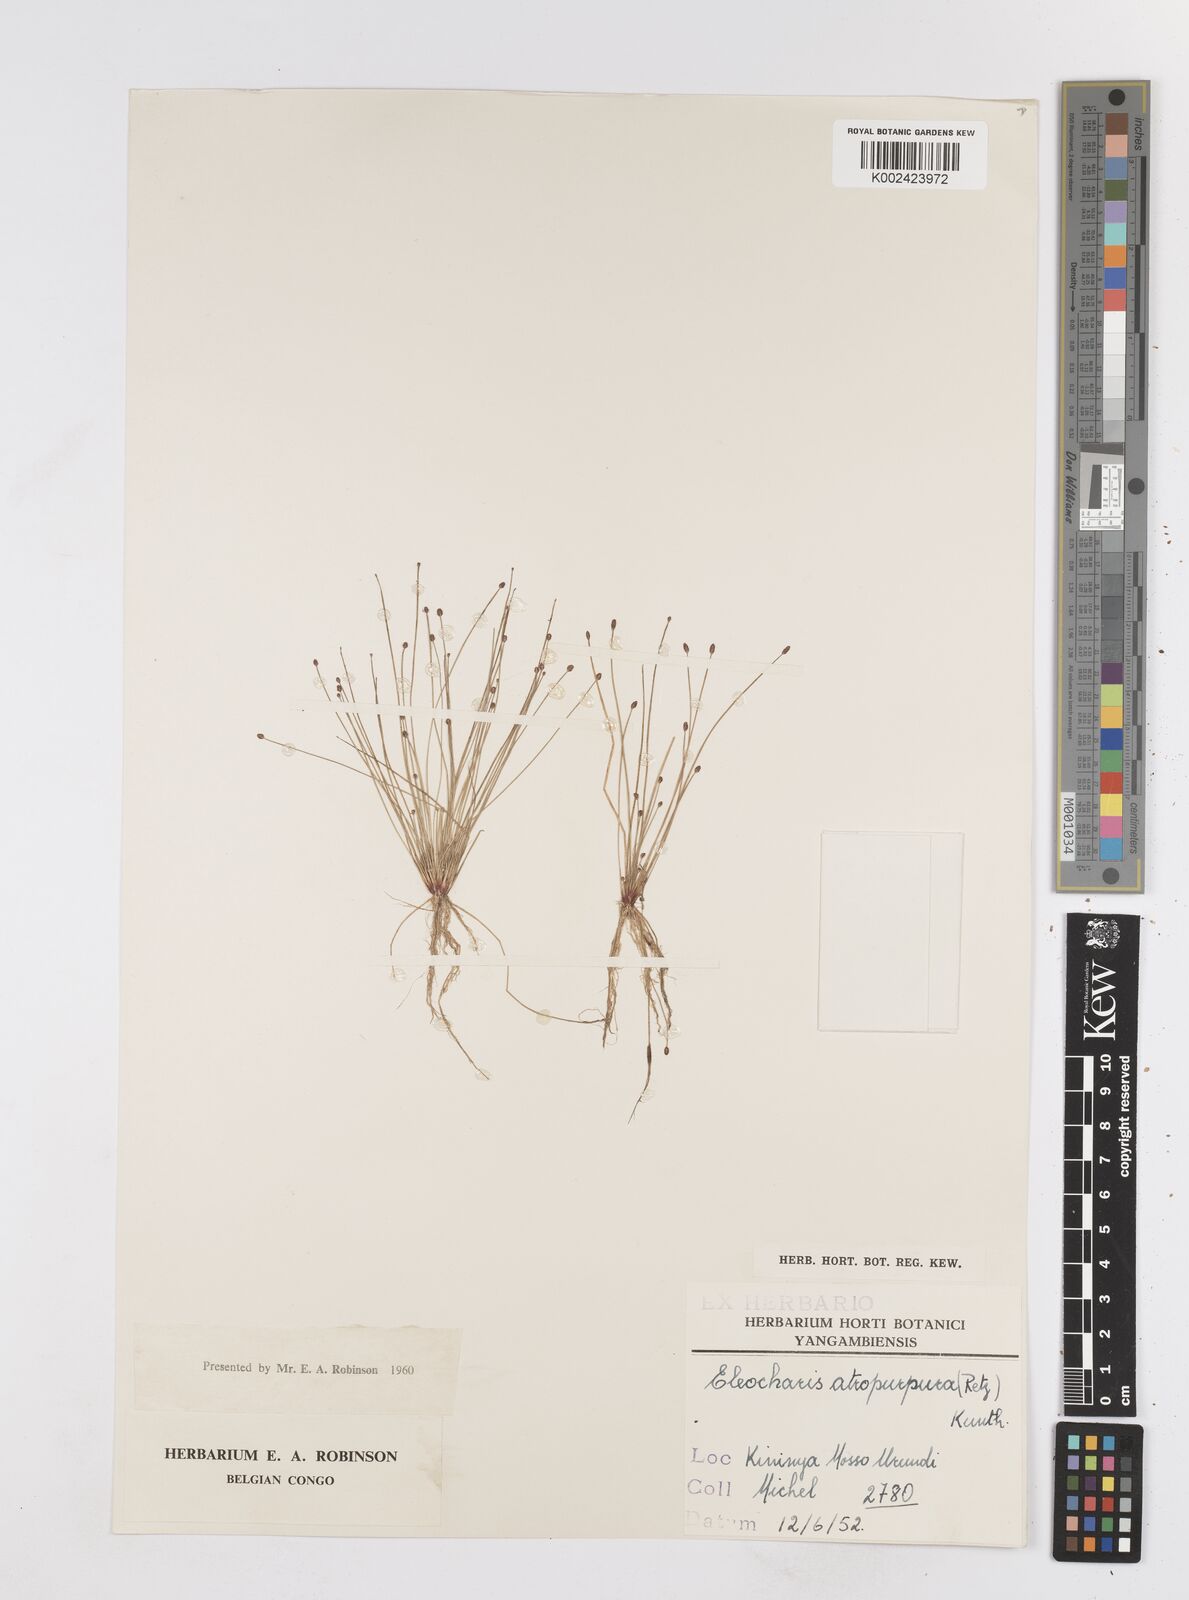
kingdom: Plantae
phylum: Tracheophyta
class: Liliopsida
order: Poales
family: Cyperaceae
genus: Eleocharis
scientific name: Eleocharis atropurpurea
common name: Purple spikerush
